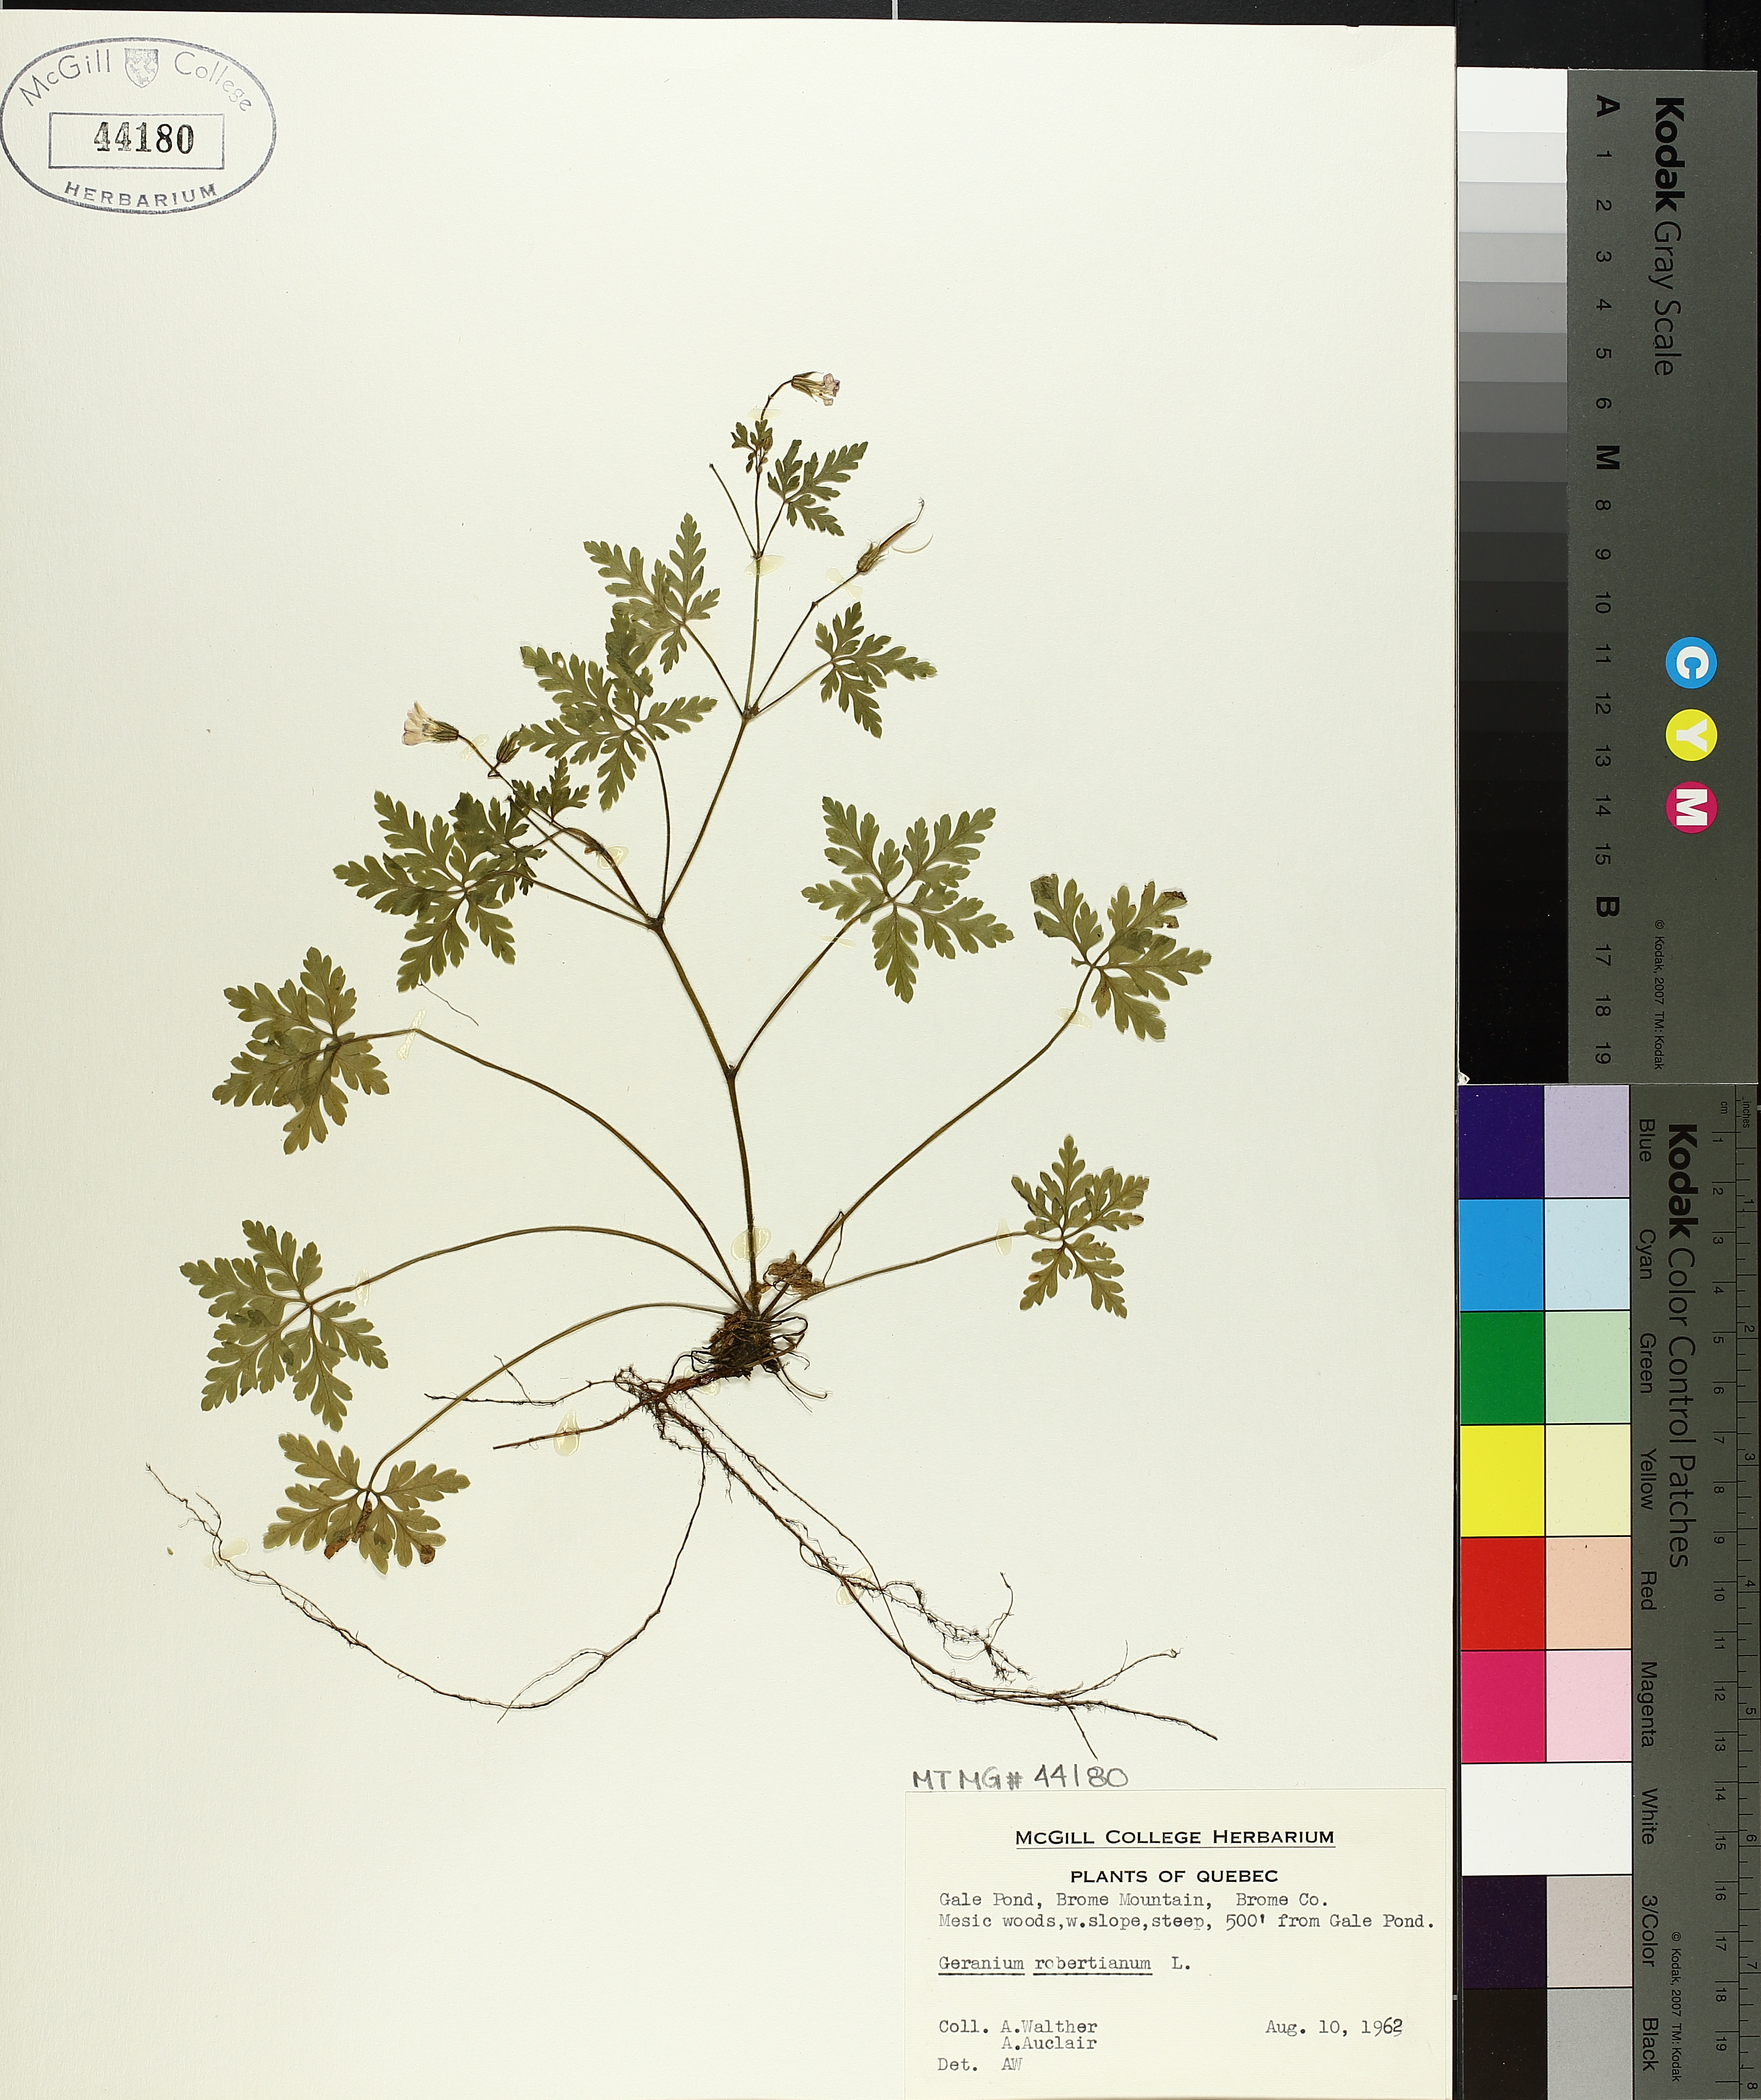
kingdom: Plantae
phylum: Tracheophyta
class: Magnoliopsida
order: Geraniales
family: Geraniaceae
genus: Geranium
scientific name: Geranium robertianum
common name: Herb-robert
